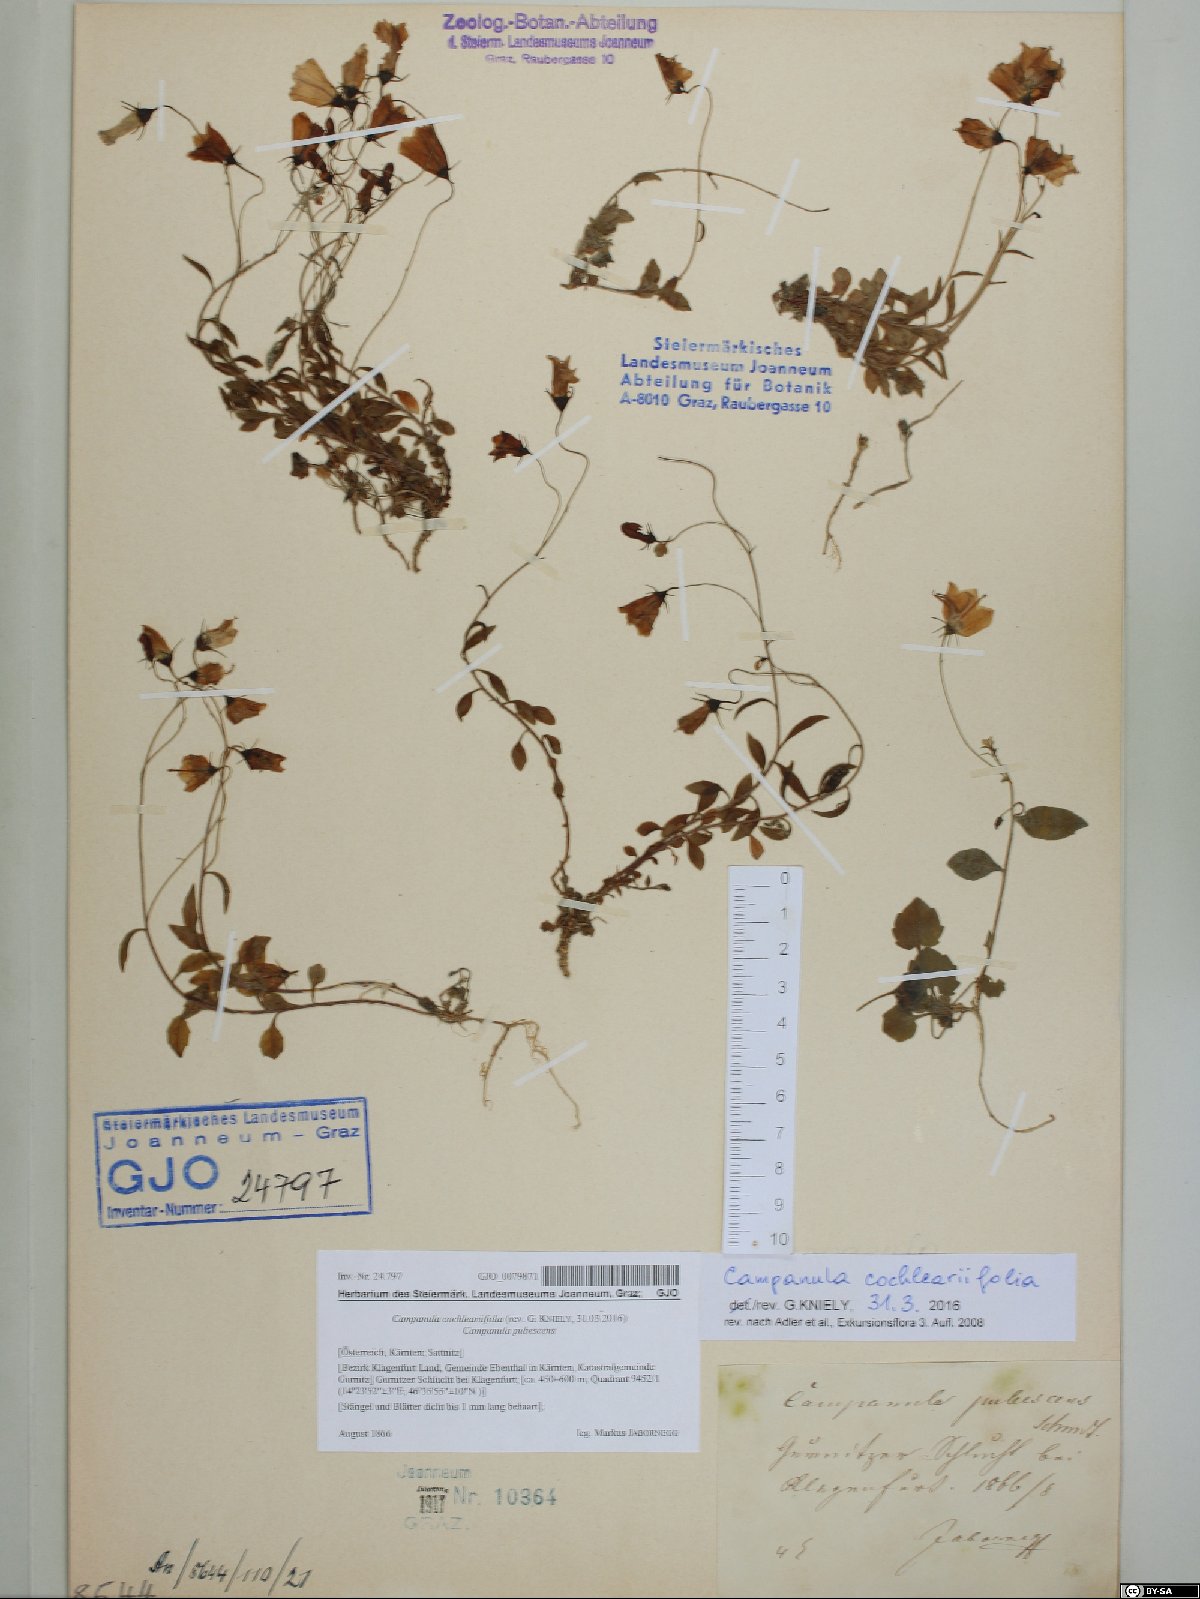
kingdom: Plantae
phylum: Tracheophyta
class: Magnoliopsida
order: Asterales
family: Campanulaceae
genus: Campanula
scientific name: Campanula cochleariifolia
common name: Fairies'-thimbles
